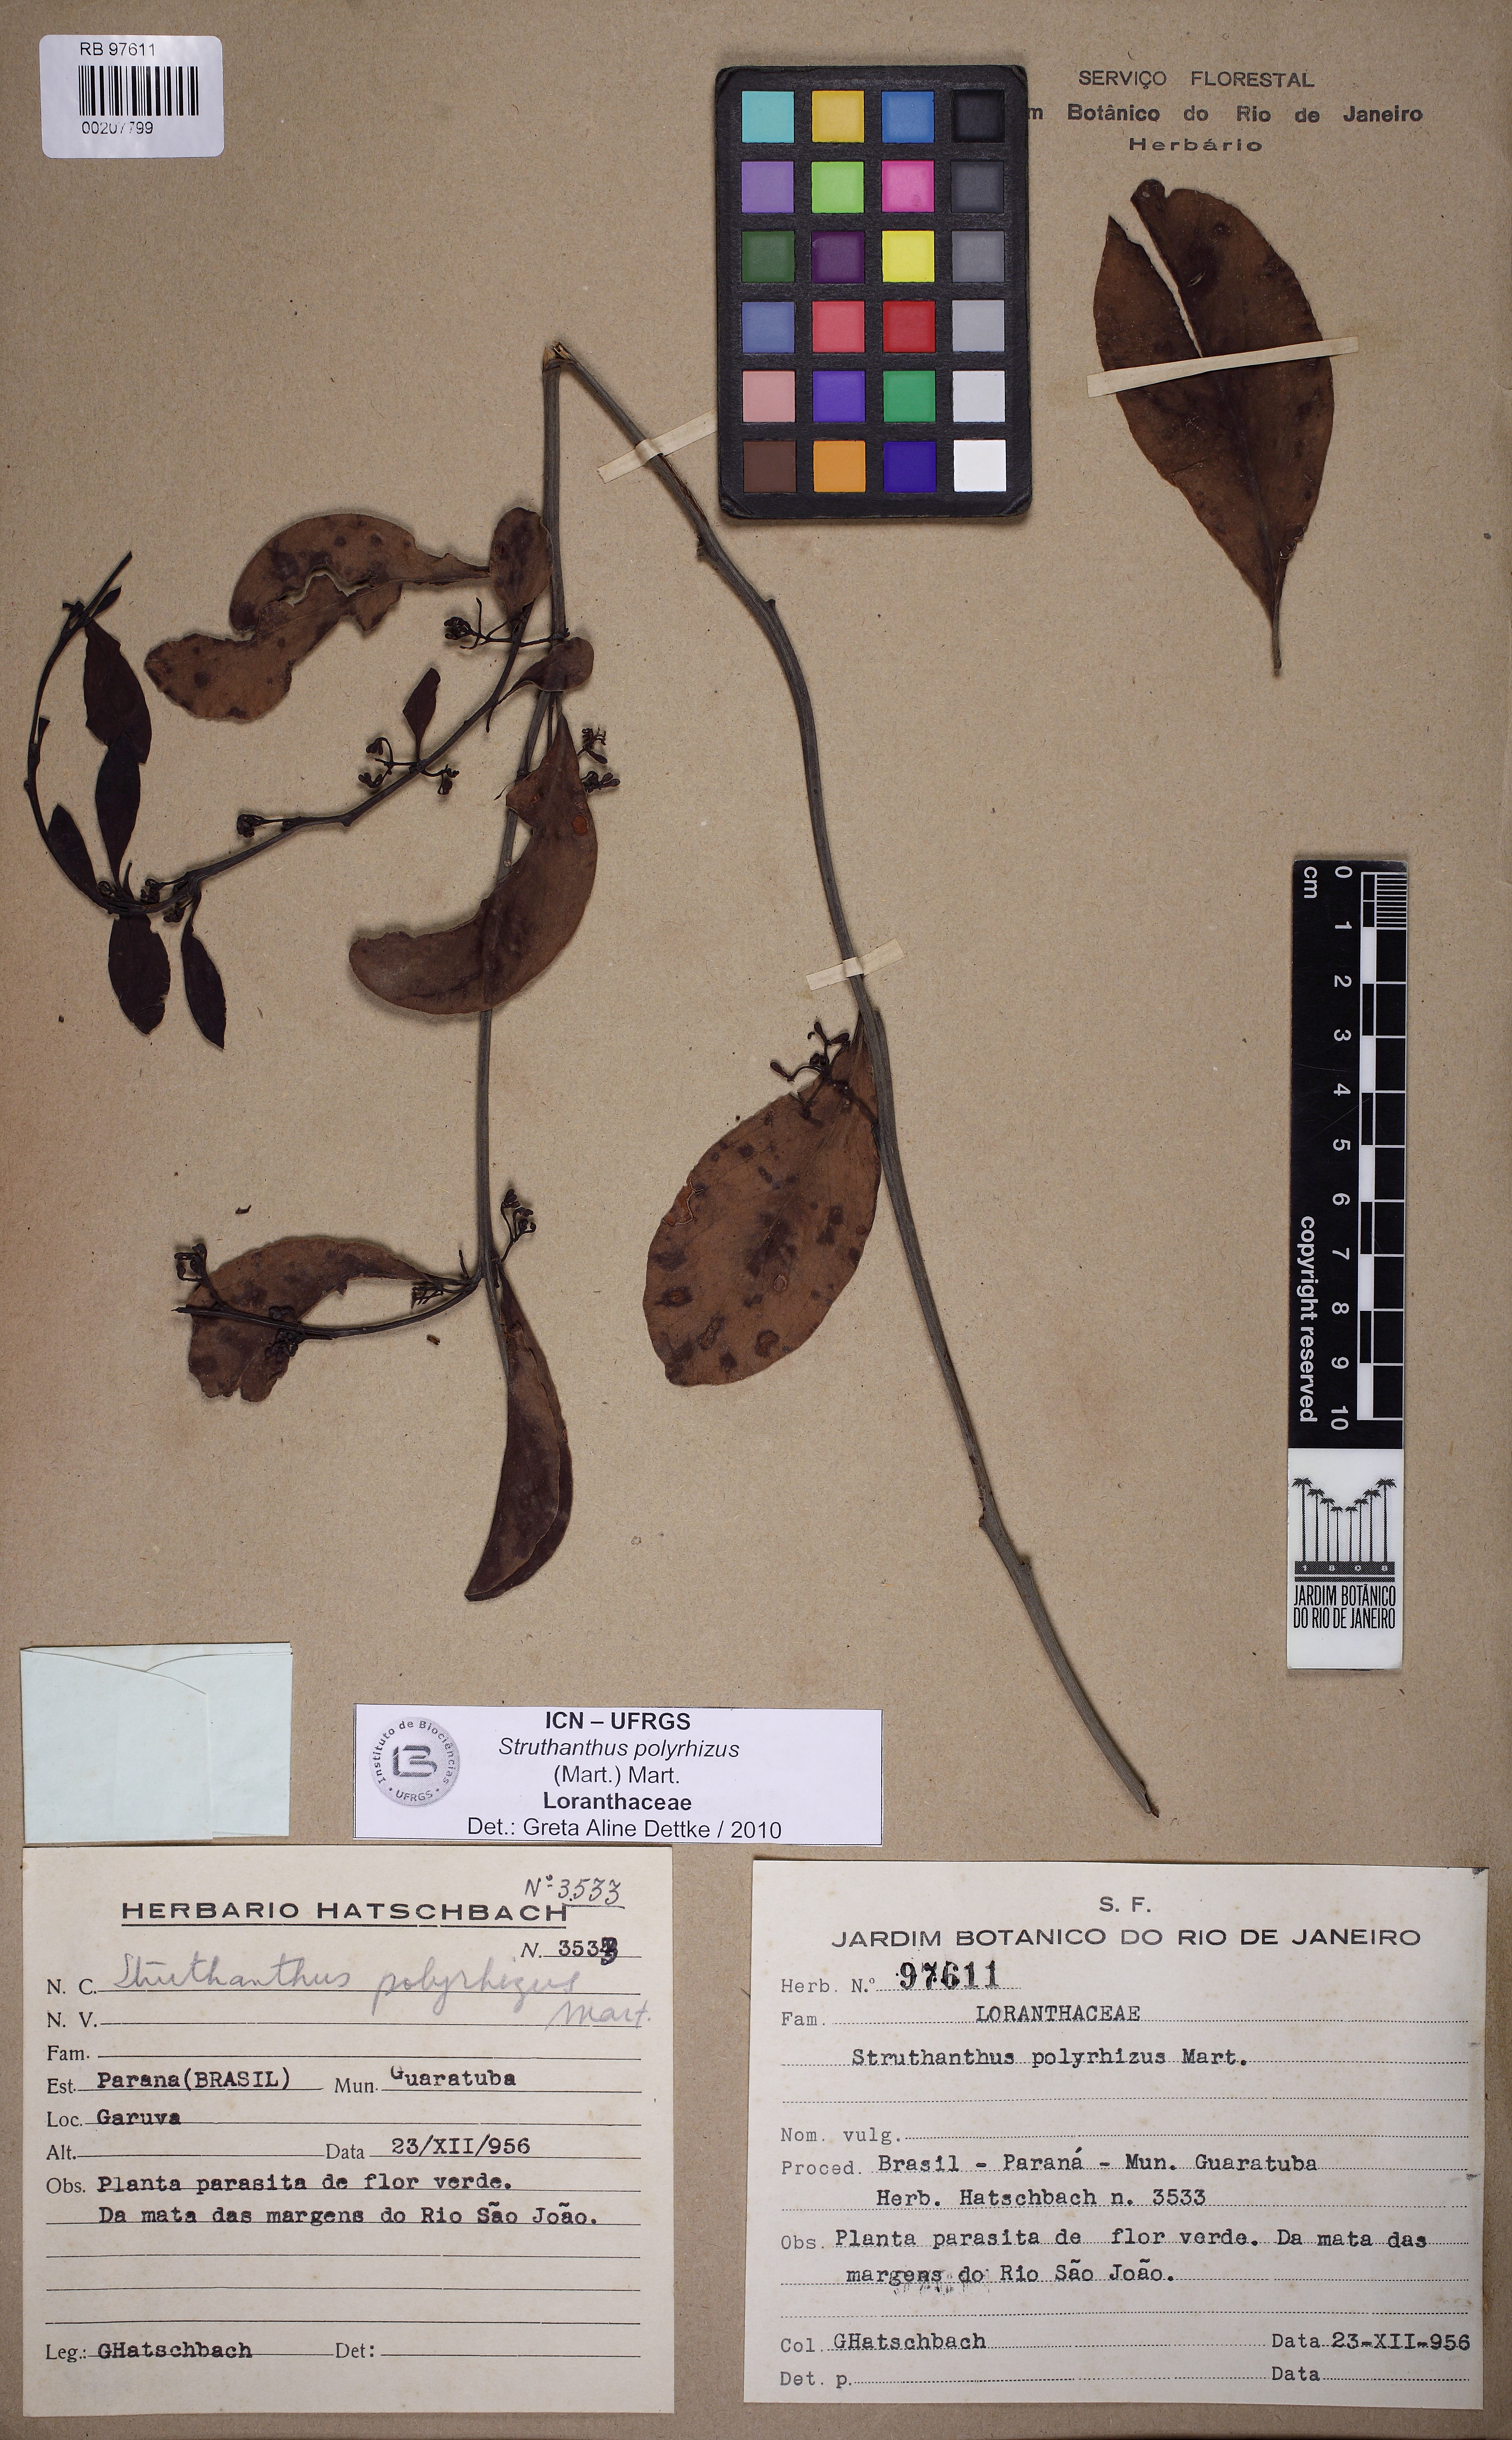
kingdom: Plantae
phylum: Tracheophyta
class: Magnoliopsida
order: Santalales
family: Loranthaceae
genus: Struthanthus
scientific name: Struthanthus retusus
